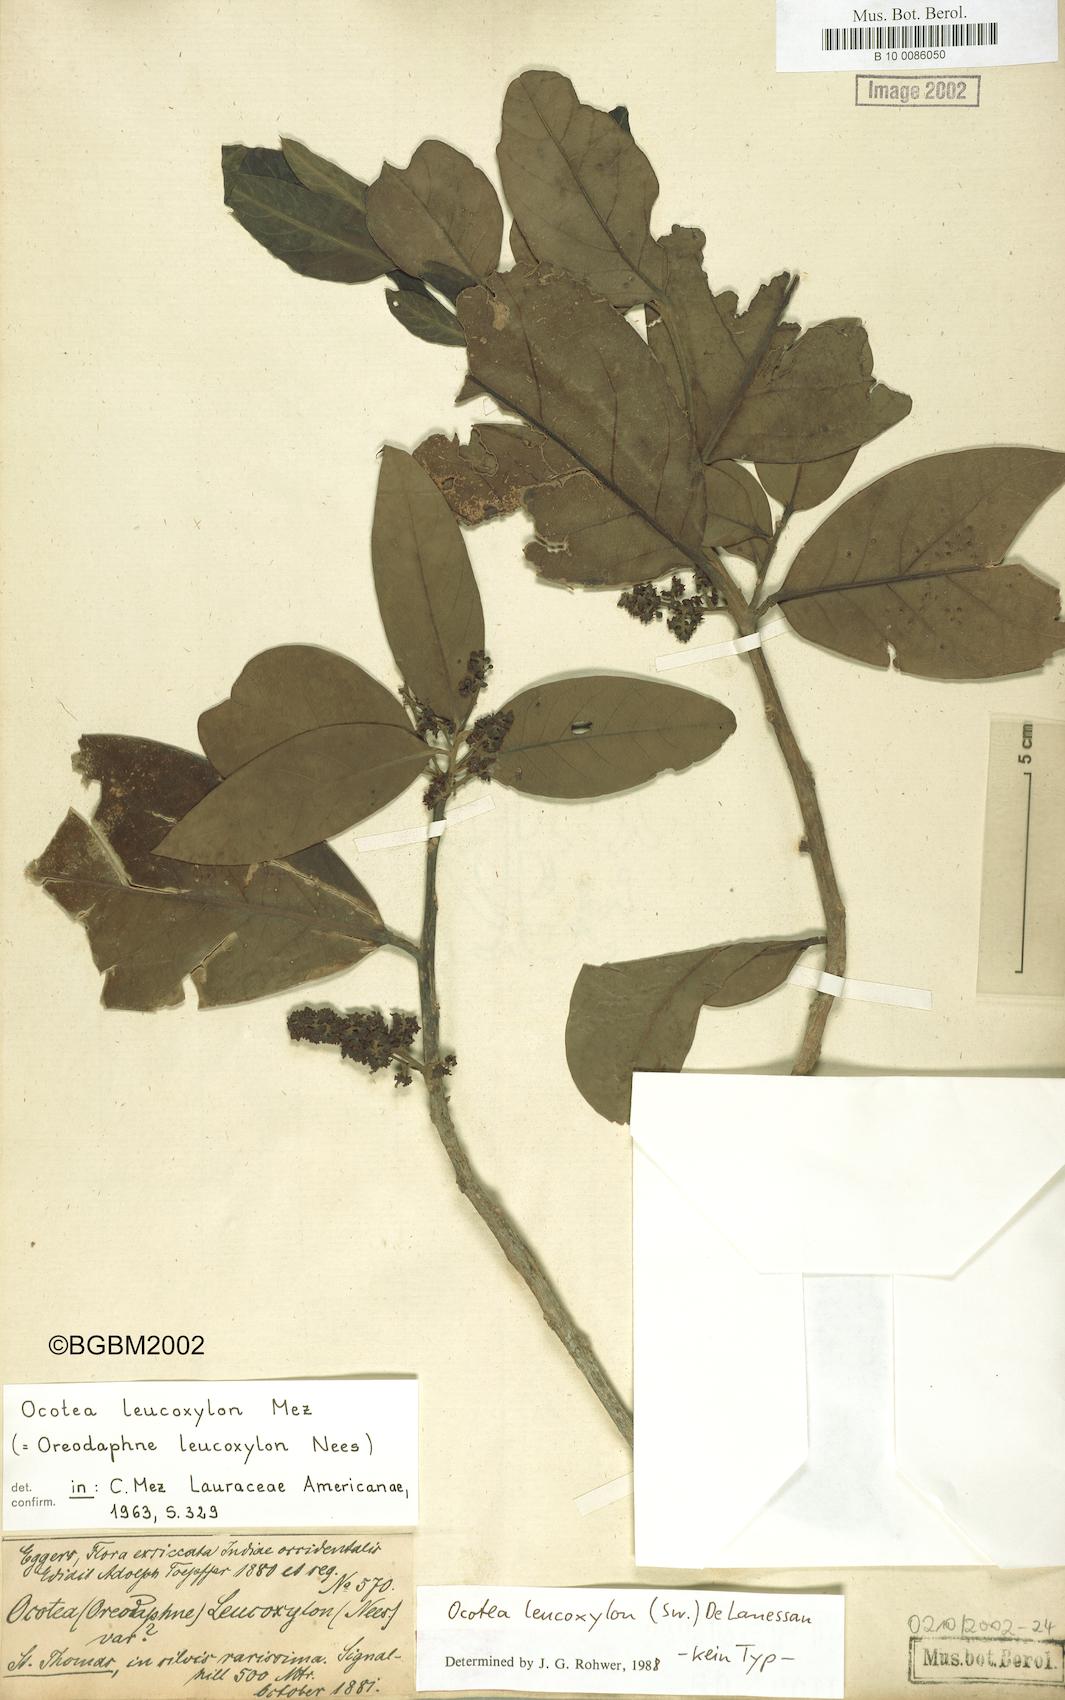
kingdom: Plantae
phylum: Tracheophyta
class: Magnoliopsida
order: Laurales
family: Lauraceae
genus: Ocotea
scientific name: Ocotea leucoxylon
